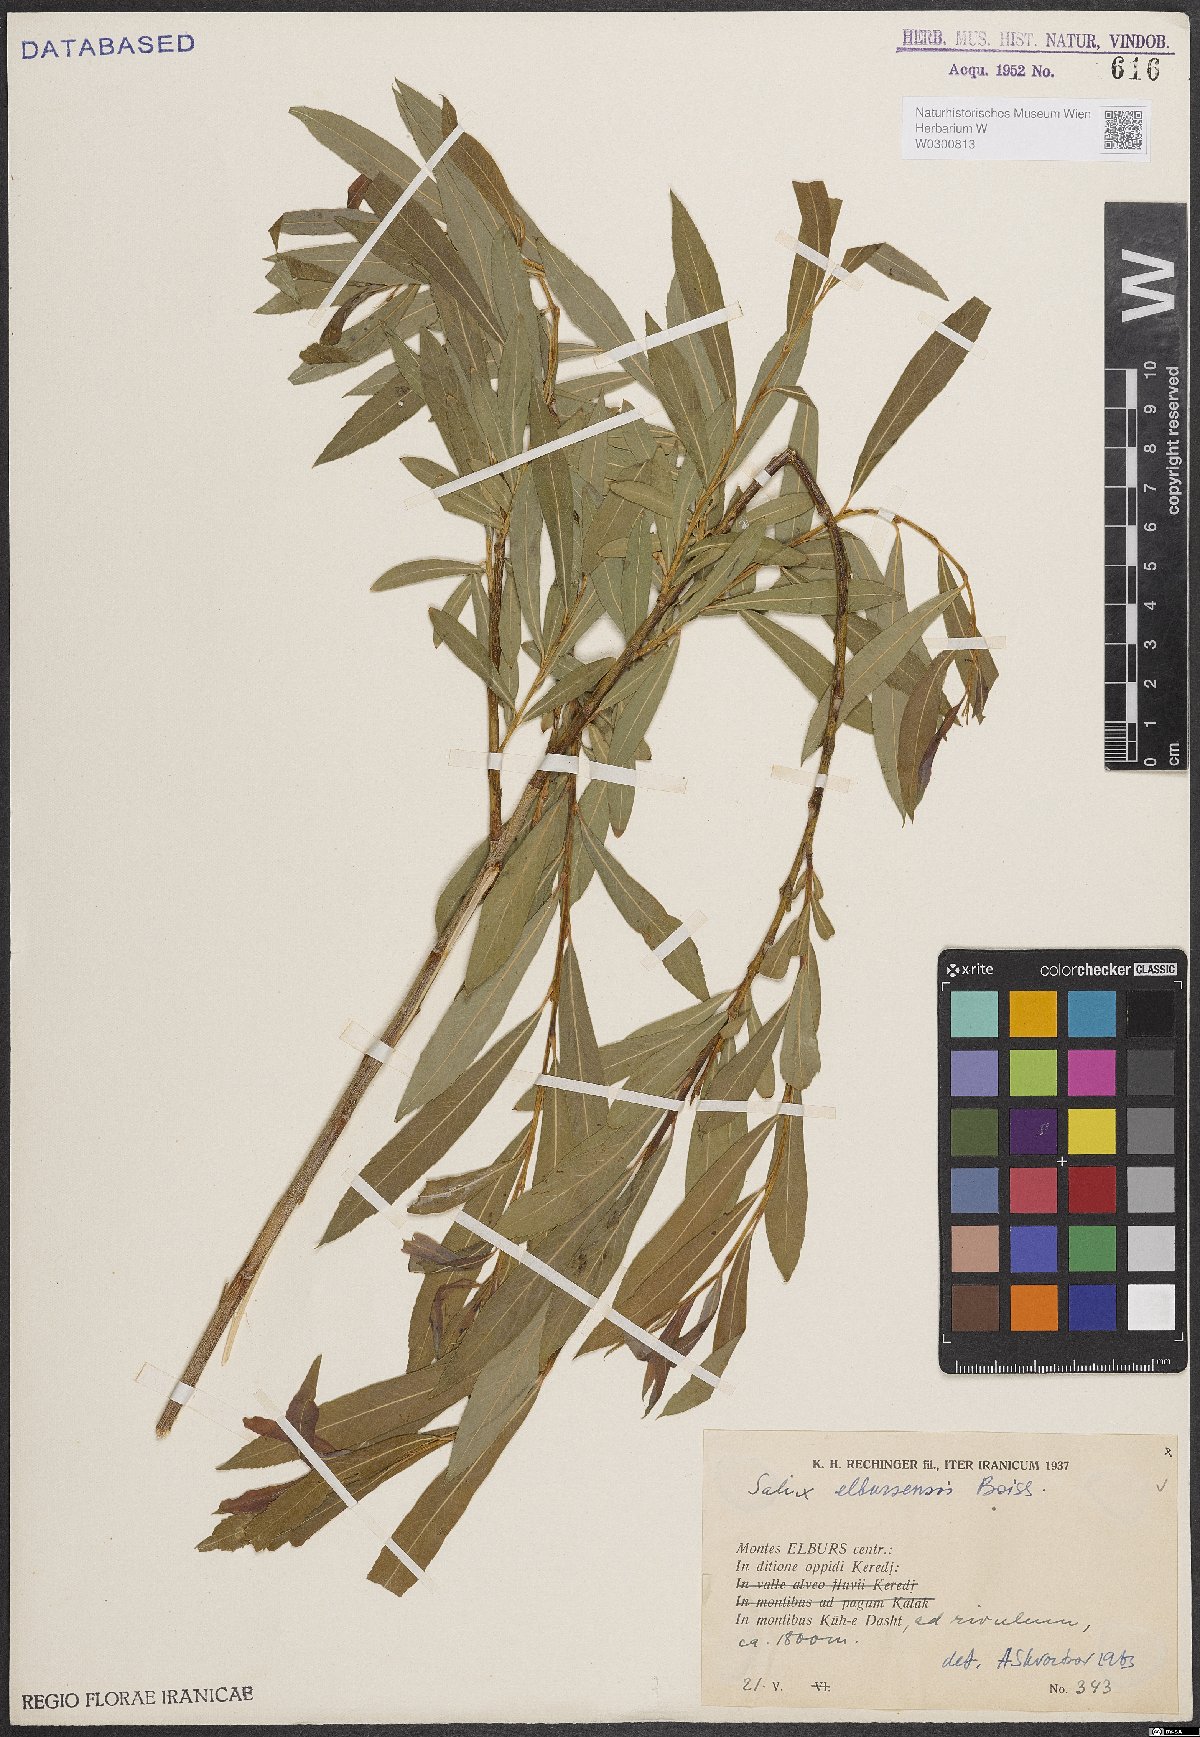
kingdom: Plantae
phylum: Tracheophyta
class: Magnoliopsida
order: Malpighiales
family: Salicaceae
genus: Salix
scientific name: Salix elbursensis
